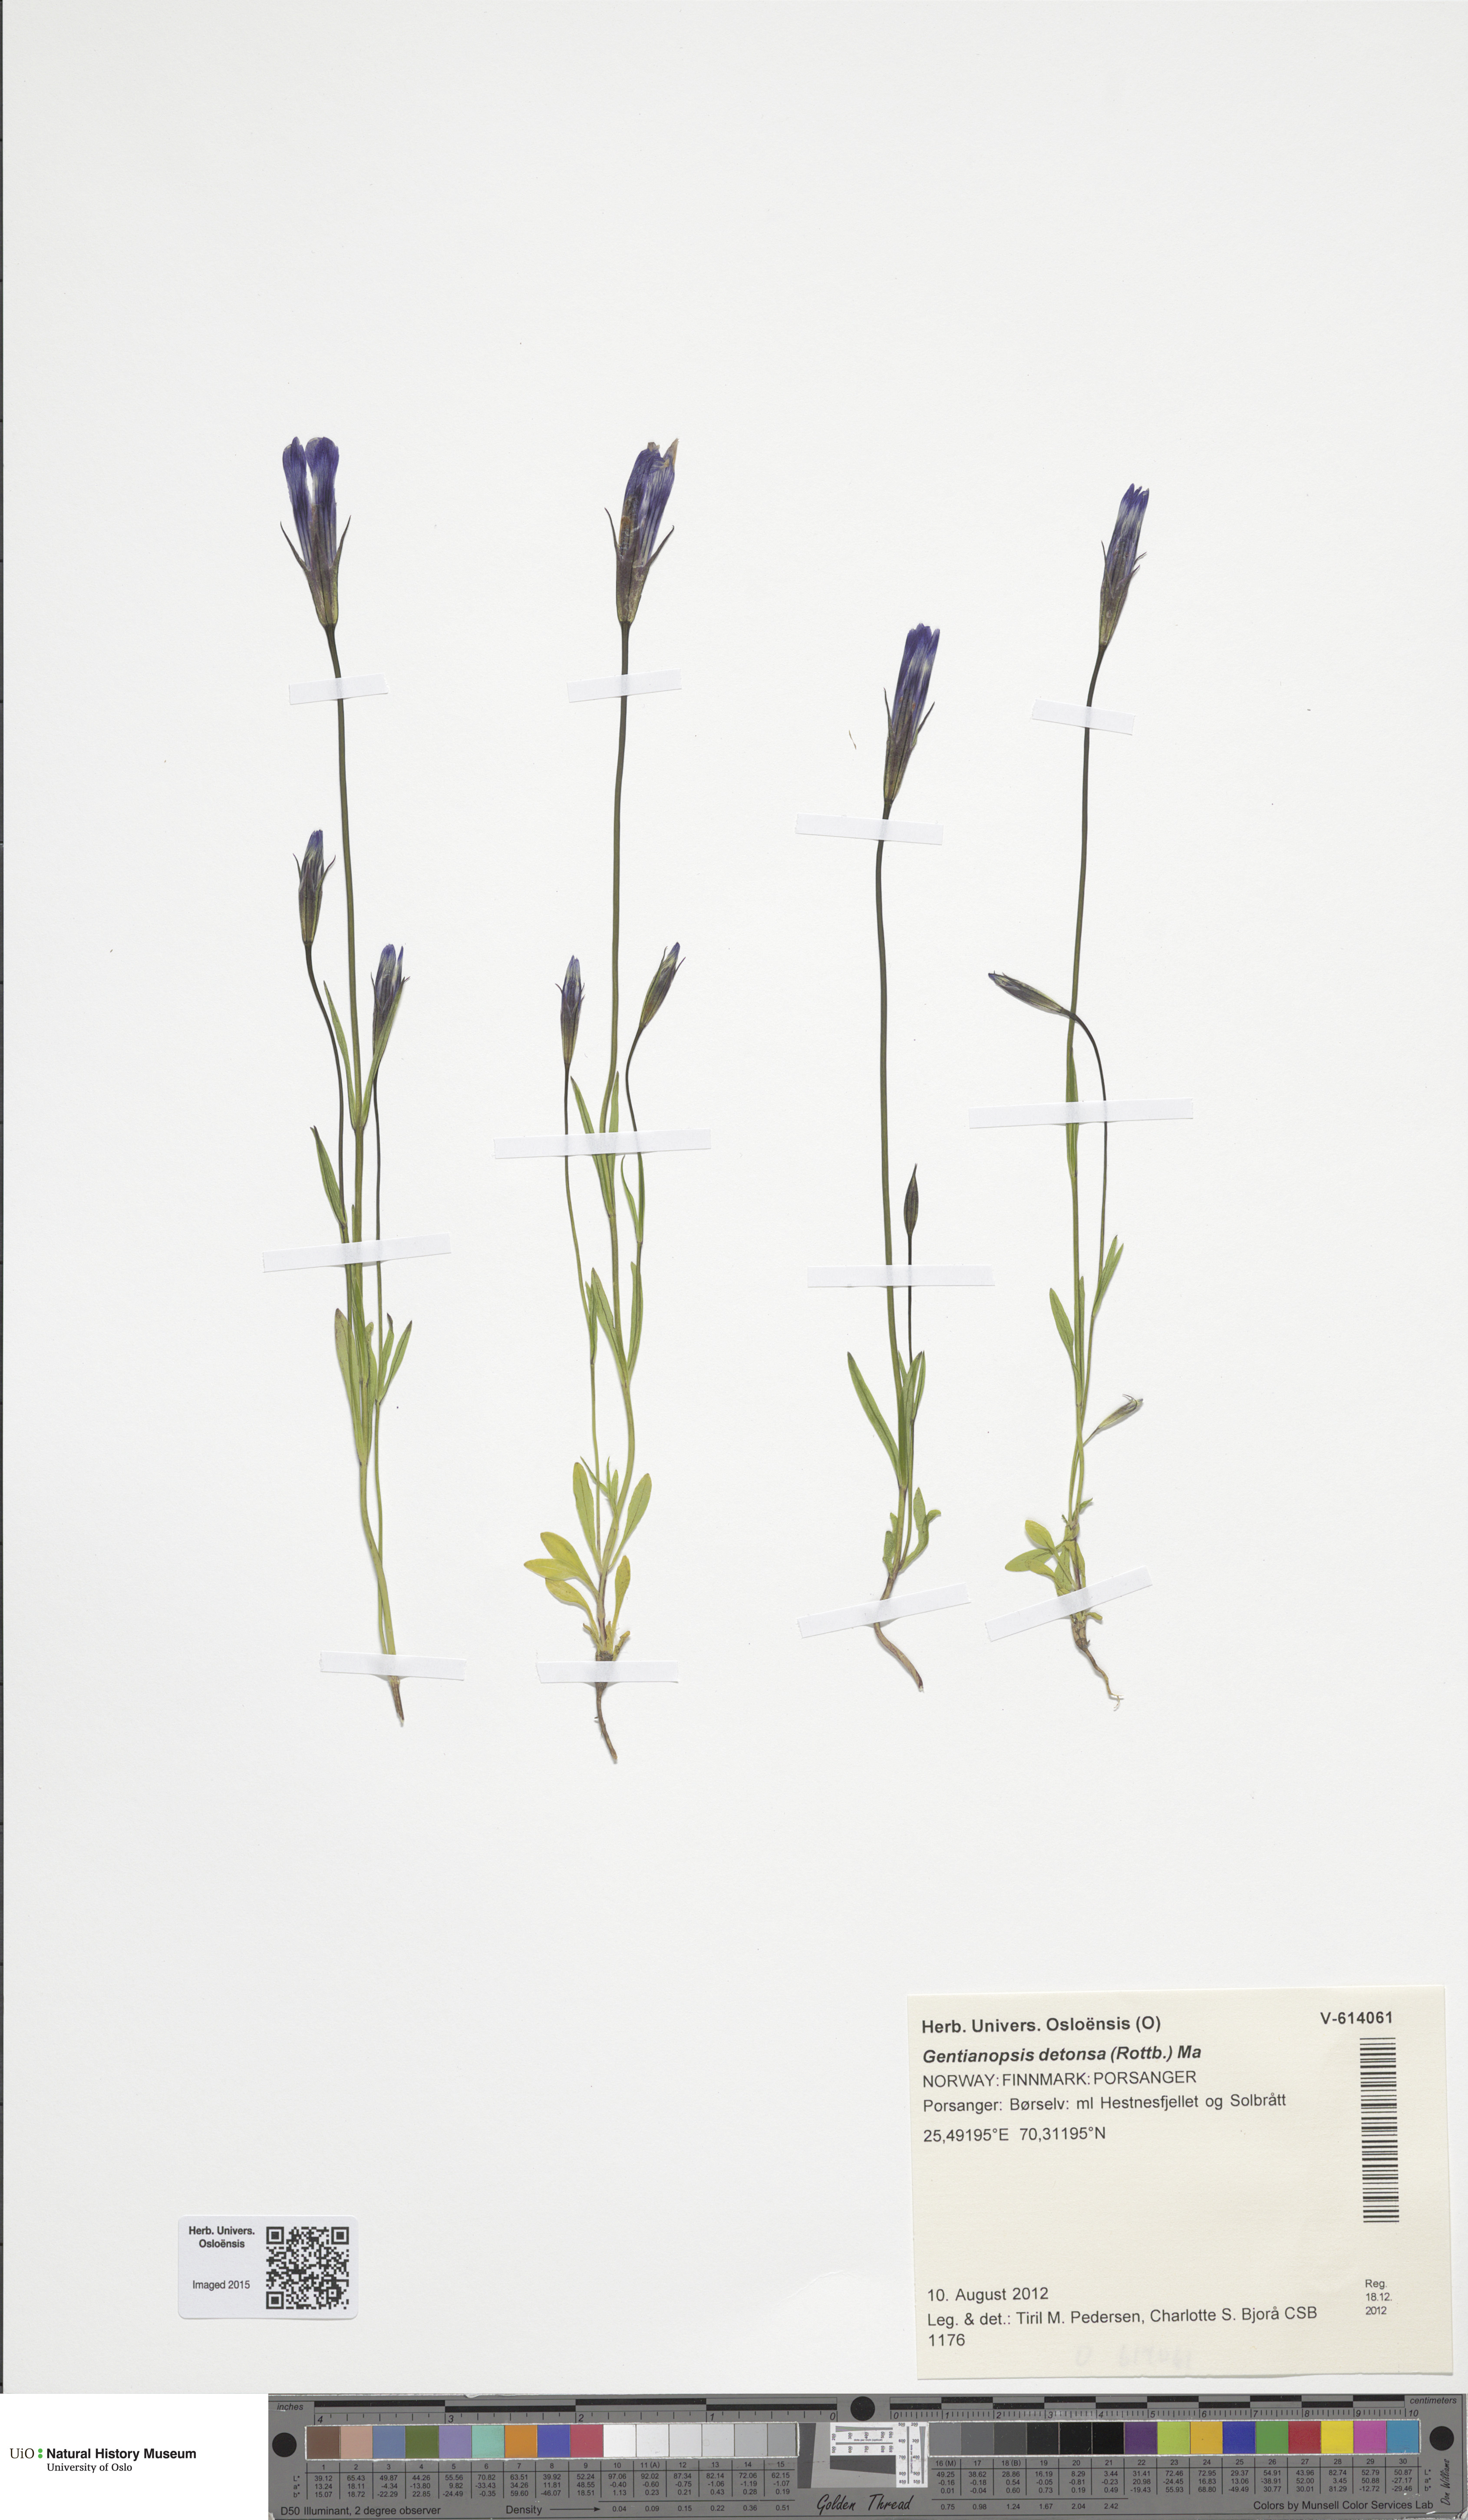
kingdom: Plantae
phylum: Tracheophyta
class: Magnoliopsida
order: Gentianales
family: Gentianaceae
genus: Gentianopsis
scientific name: Gentianopsis detonsa
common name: Fringed-gentian
